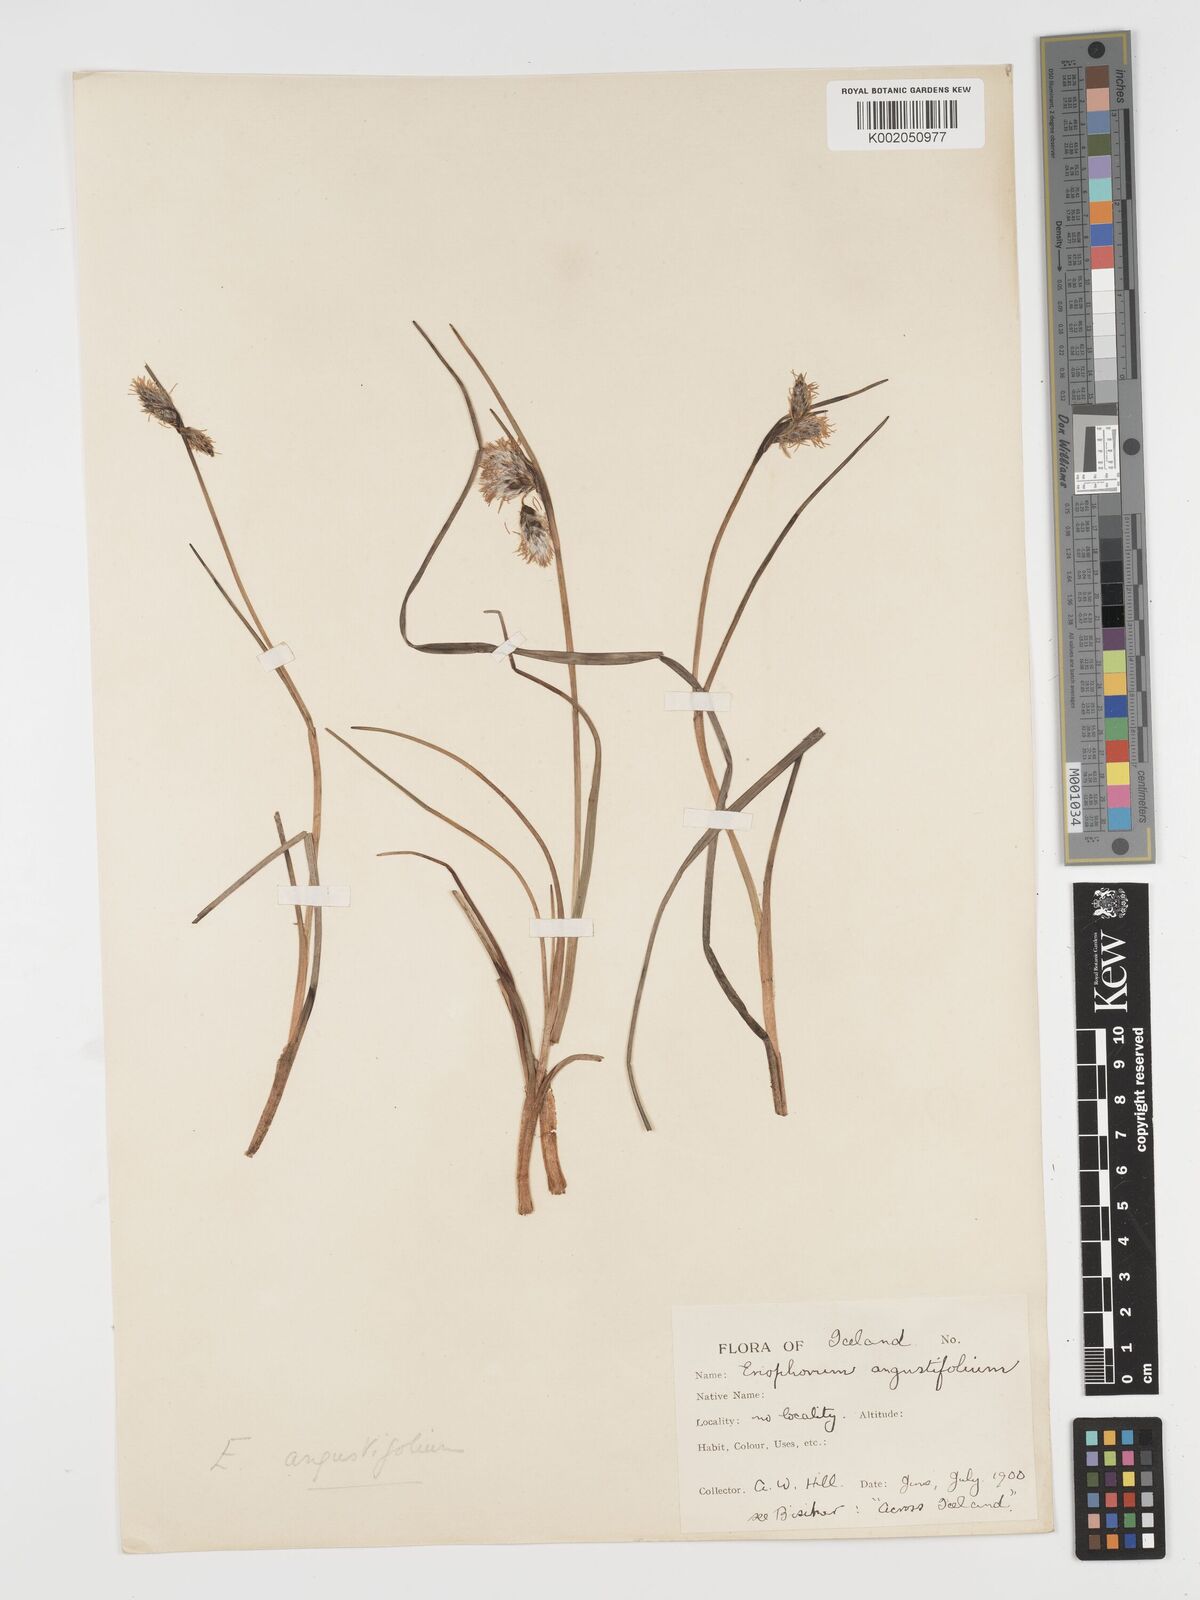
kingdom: Plantae
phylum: Tracheophyta
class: Liliopsida
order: Poales
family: Cyperaceae
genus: Eriophorum
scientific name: Eriophorum angustifolium
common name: Common cottongrass
